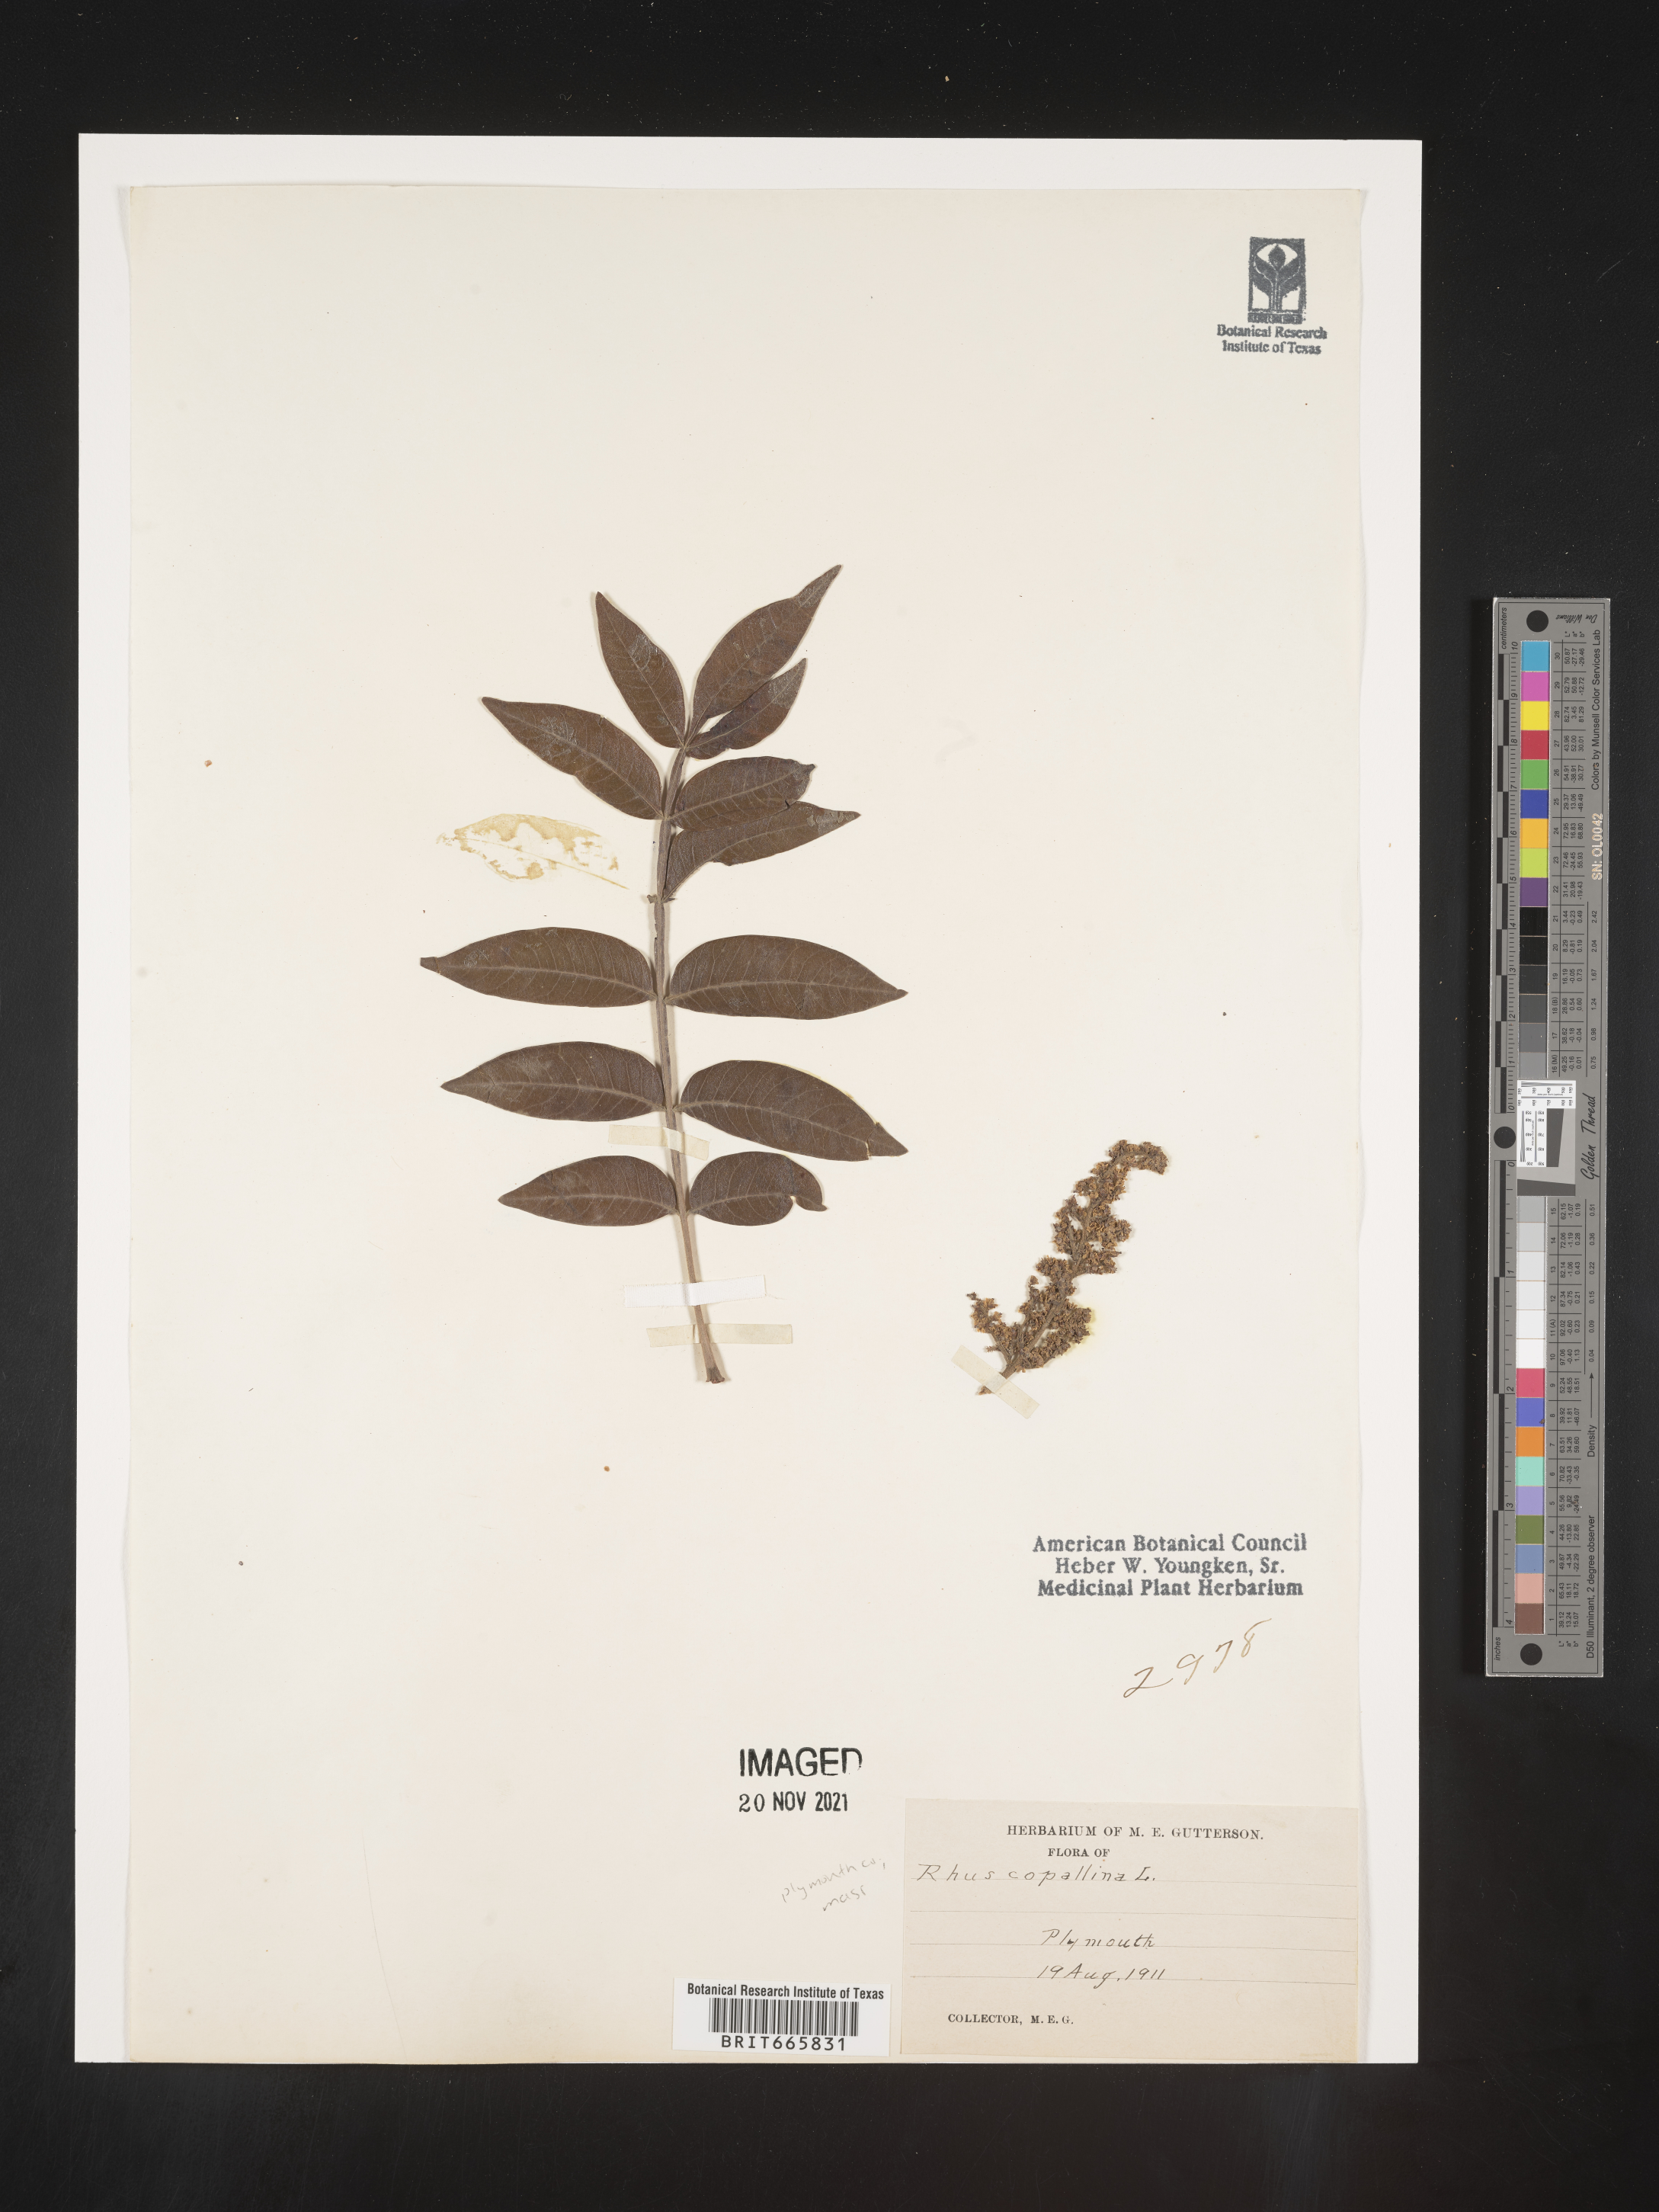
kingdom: Plantae
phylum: Tracheophyta
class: Magnoliopsida
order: Sapindales
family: Anacardiaceae
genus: Rhus
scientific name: Rhus copallina
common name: Shining sumac
